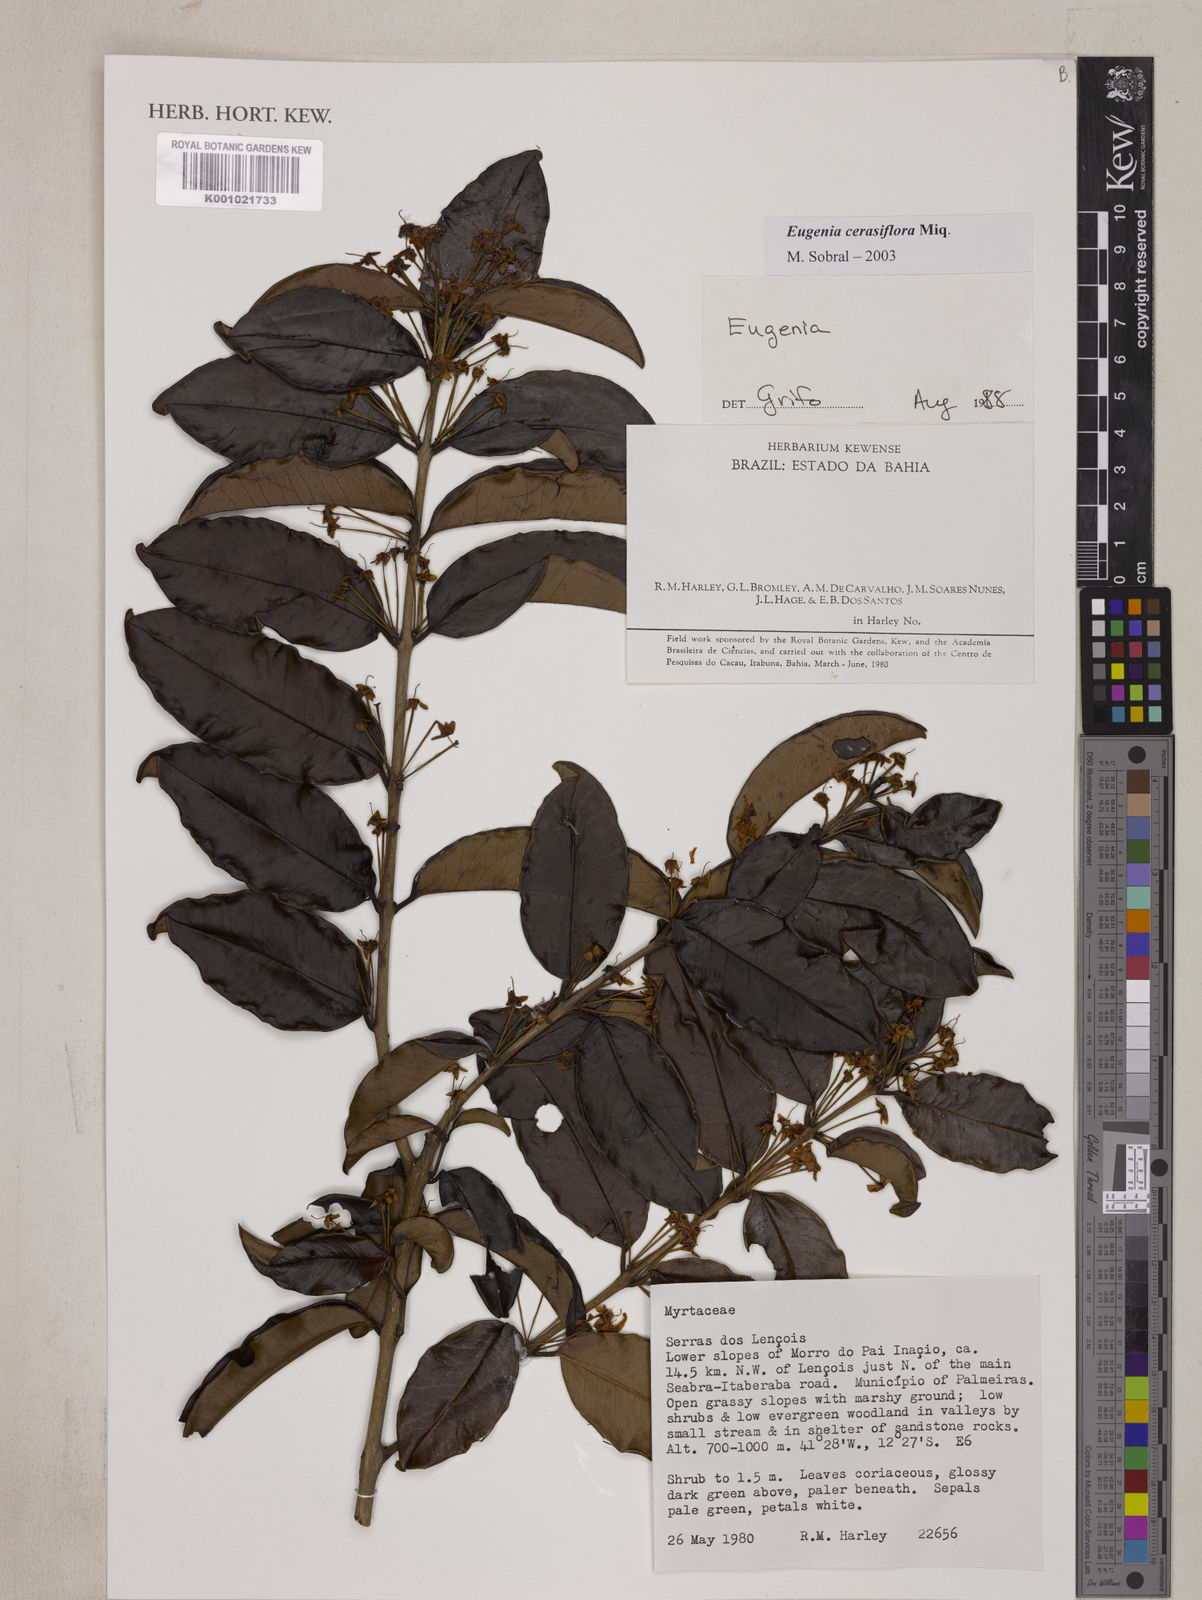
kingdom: Plantae
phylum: Tracheophyta
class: Magnoliopsida
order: Myrtales
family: Myrtaceae
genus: Eugenia
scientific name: Eugenia cerasiflora
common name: Cherry-of-the-rio-grande
